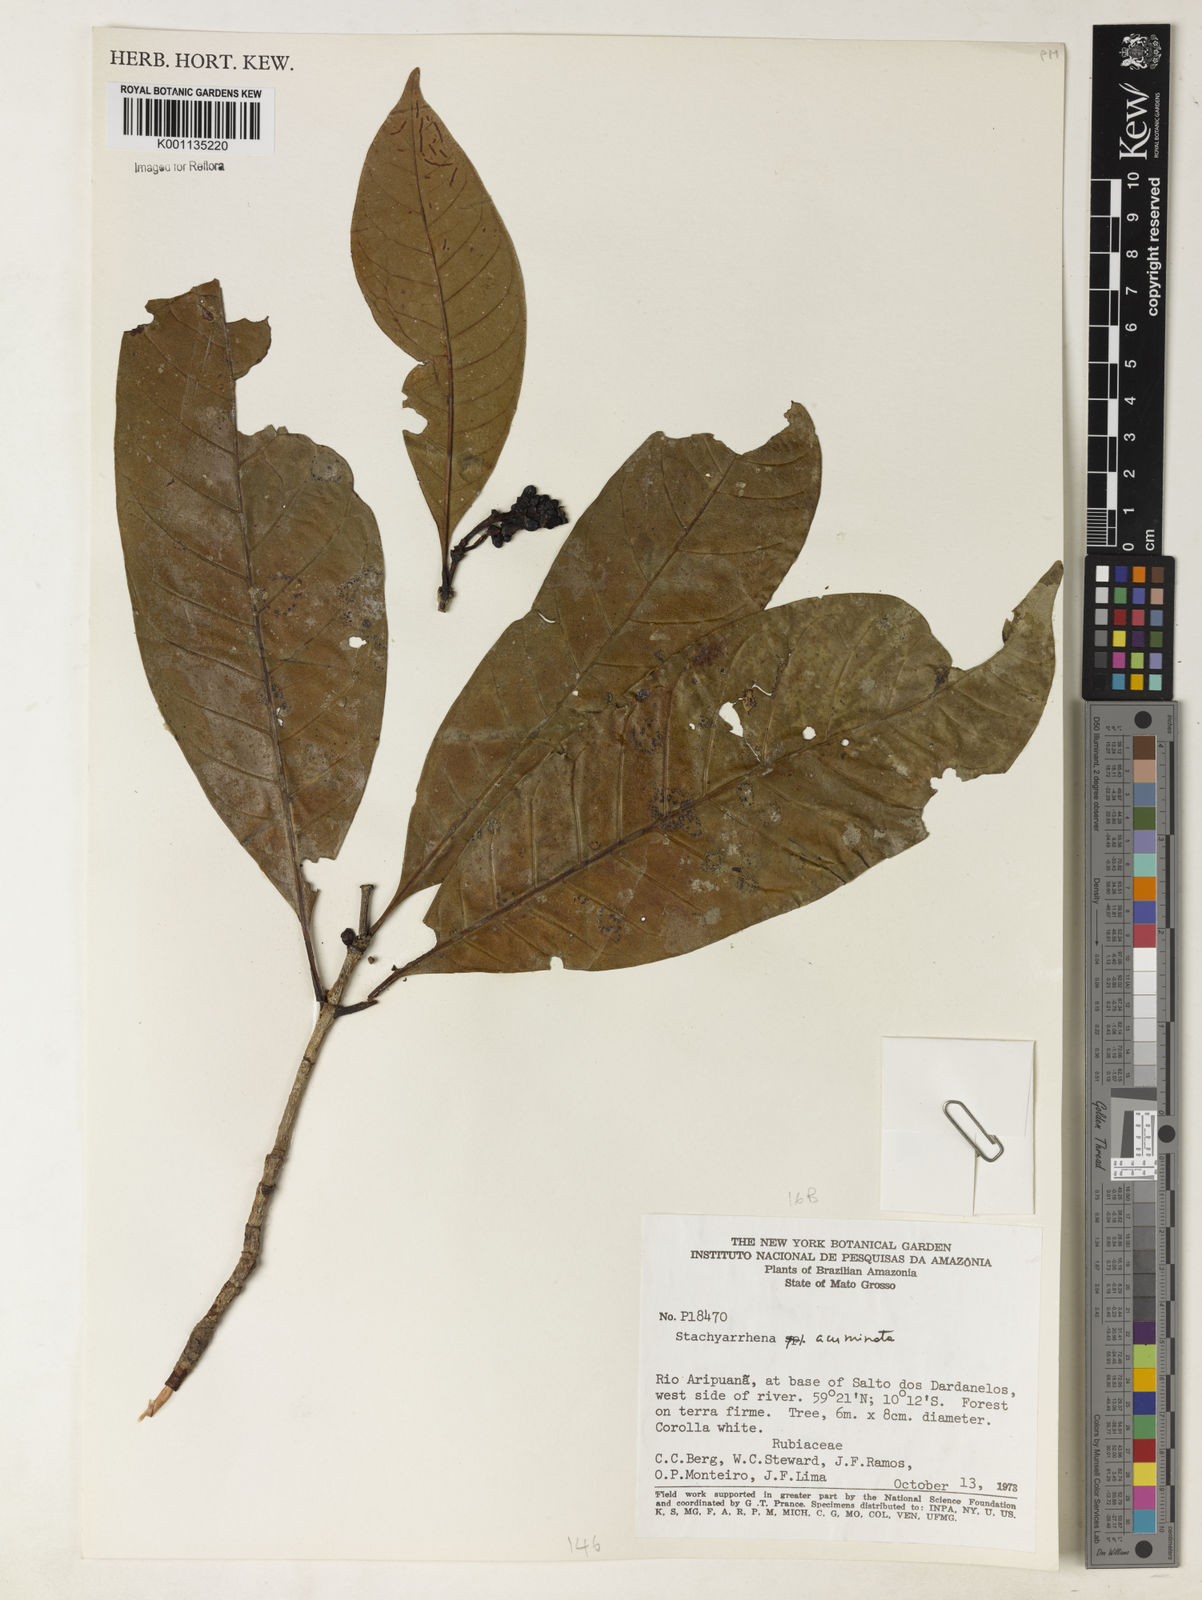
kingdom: Plantae
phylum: Tracheophyta
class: Magnoliopsida
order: Gentianales
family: Rubiaceae
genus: Stachyarrhena
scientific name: Stachyarrhena acuminata
